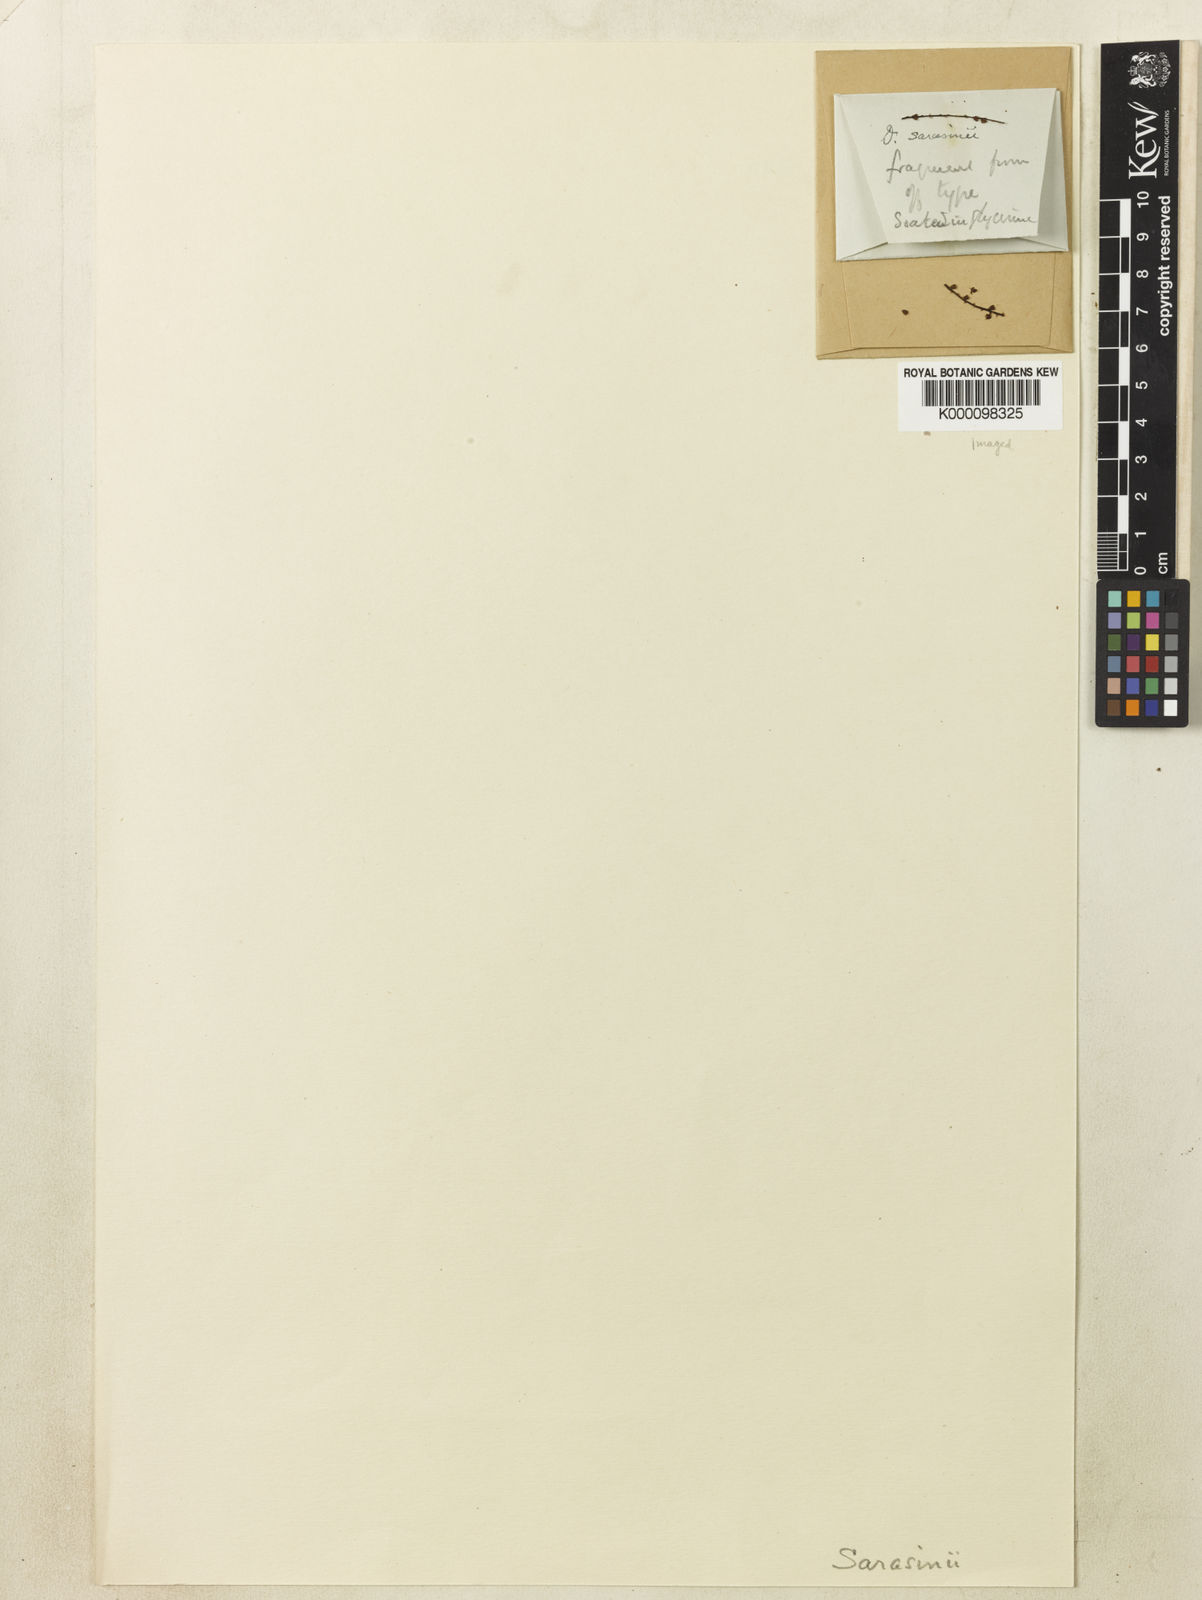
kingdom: Plantae
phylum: Tracheophyta
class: Liliopsida
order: Dioscoreales
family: Dioscoreaceae
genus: Dioscorea
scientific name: Dioscorea
